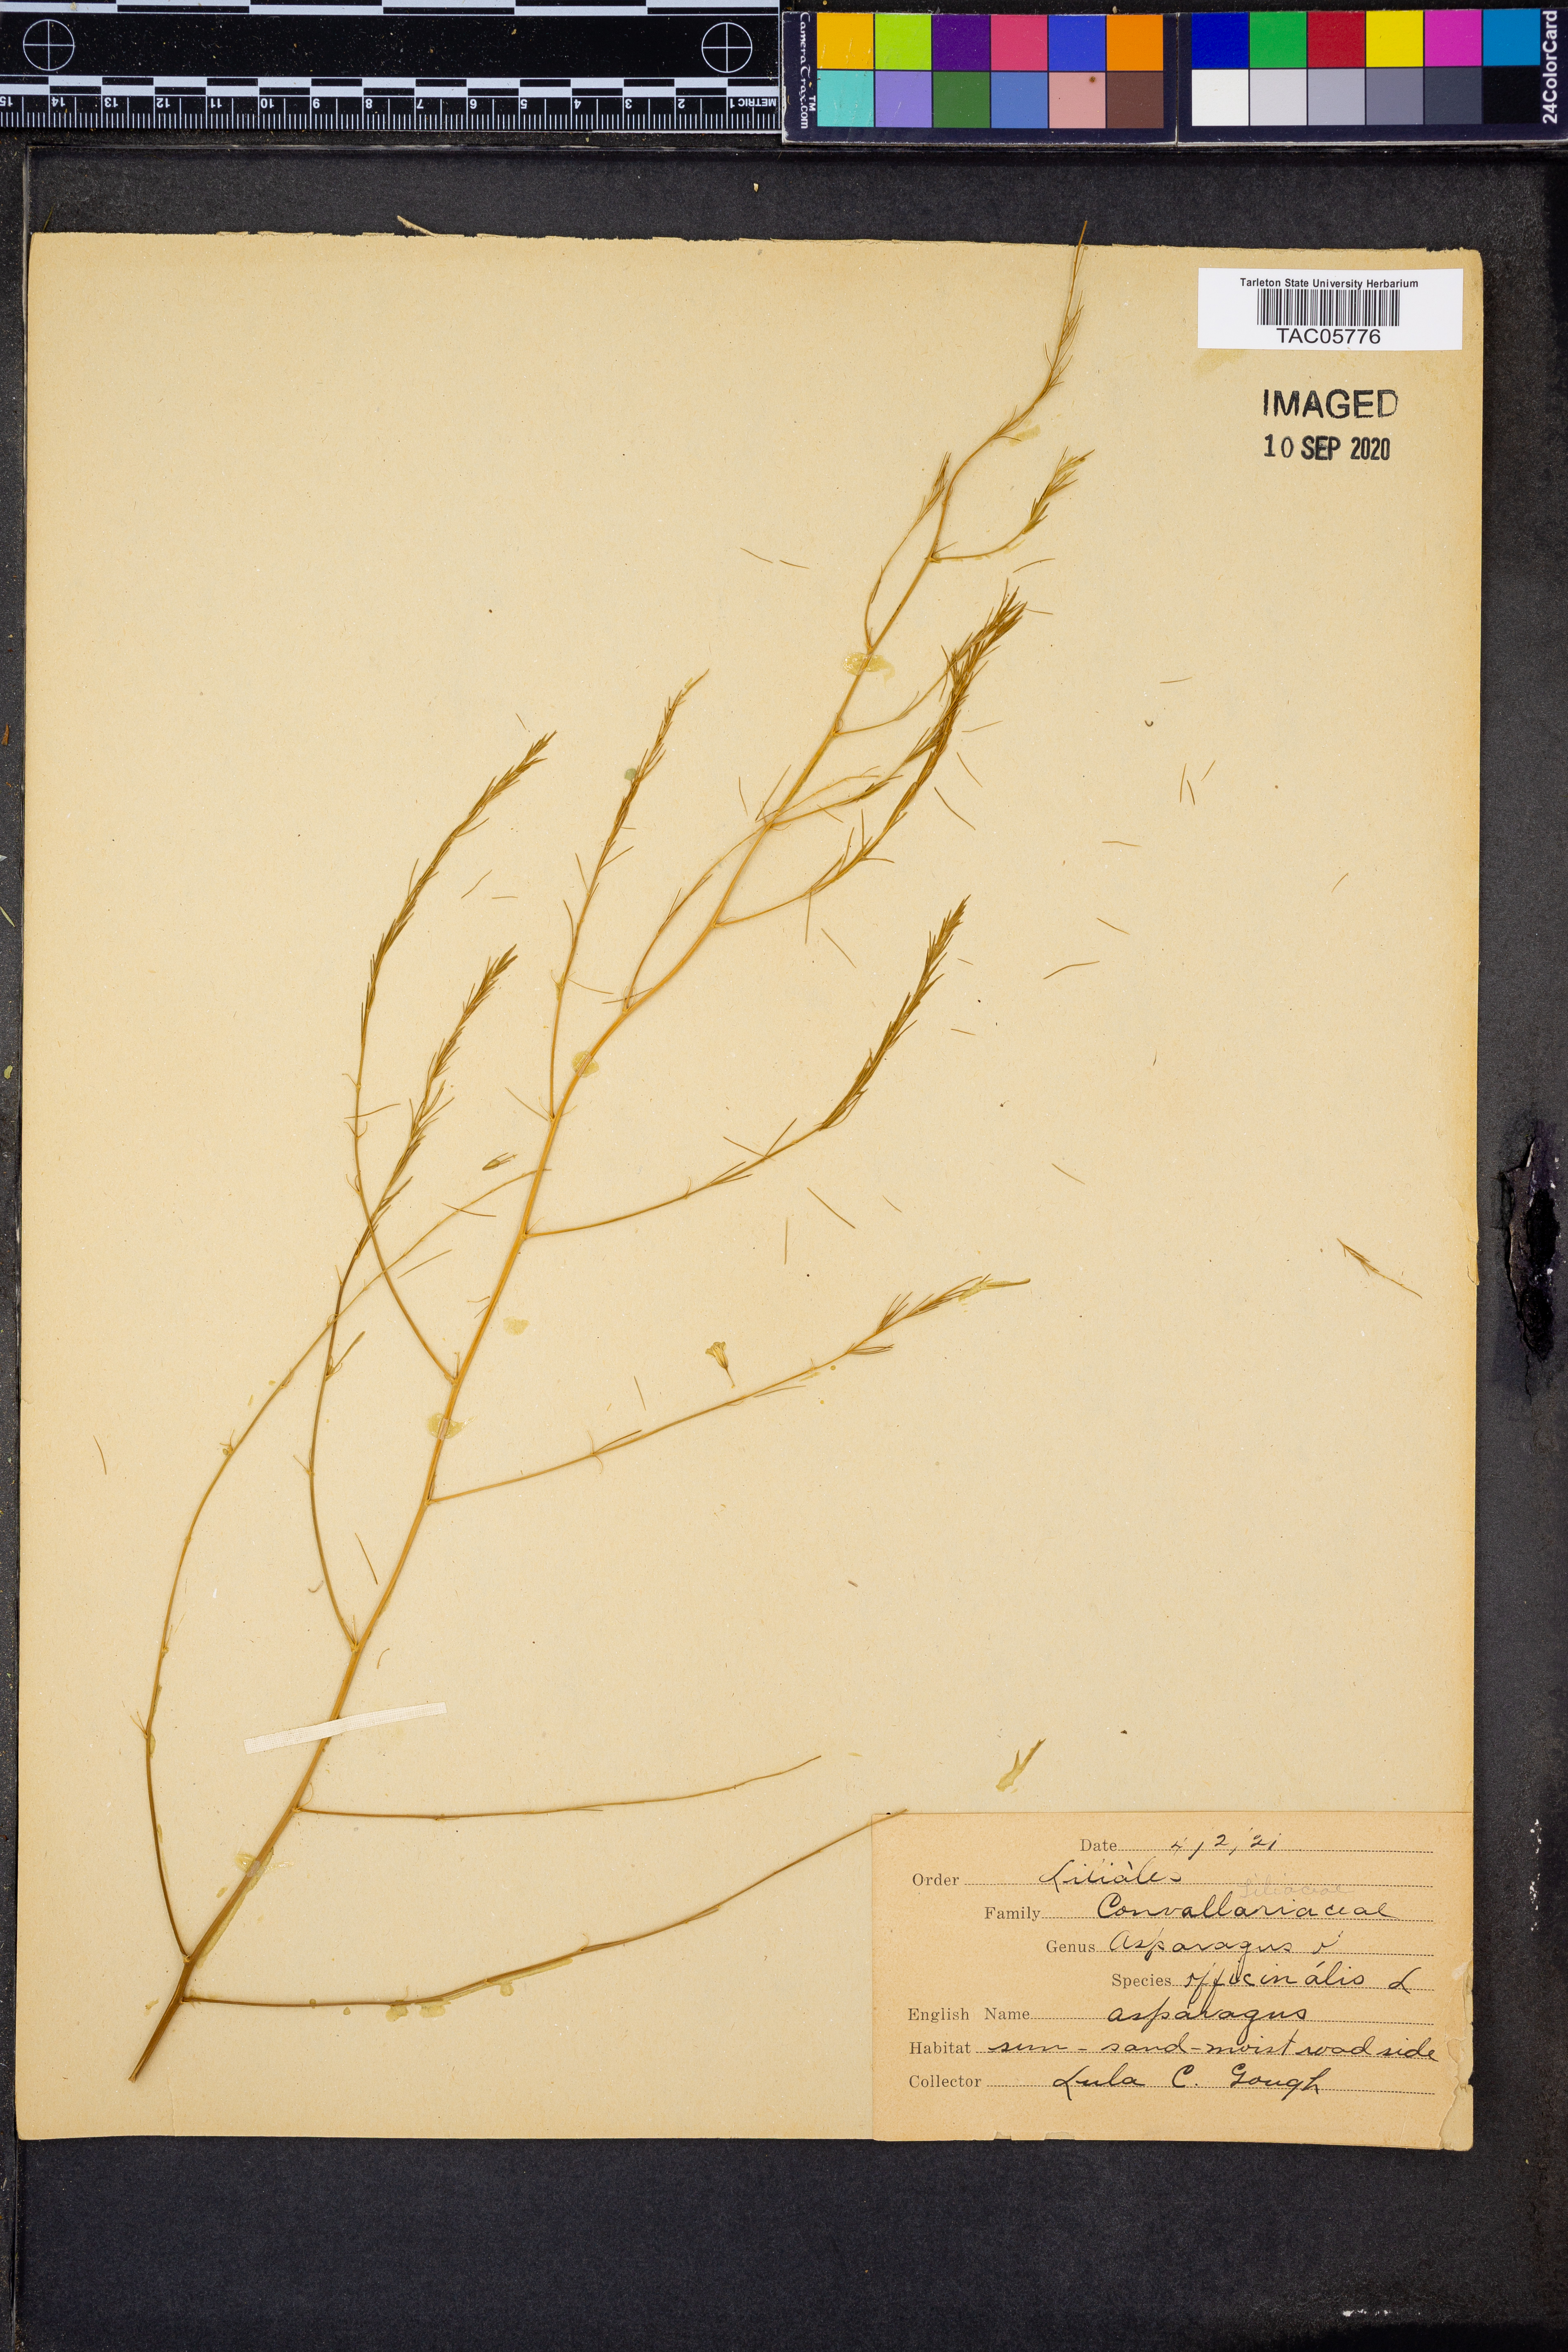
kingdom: Plantae
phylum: Tracheophyta
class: Liliopsida
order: Asparagales
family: Asparagaceae
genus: Asparagus
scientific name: Asparagus officinalis
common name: Garden asparagus
